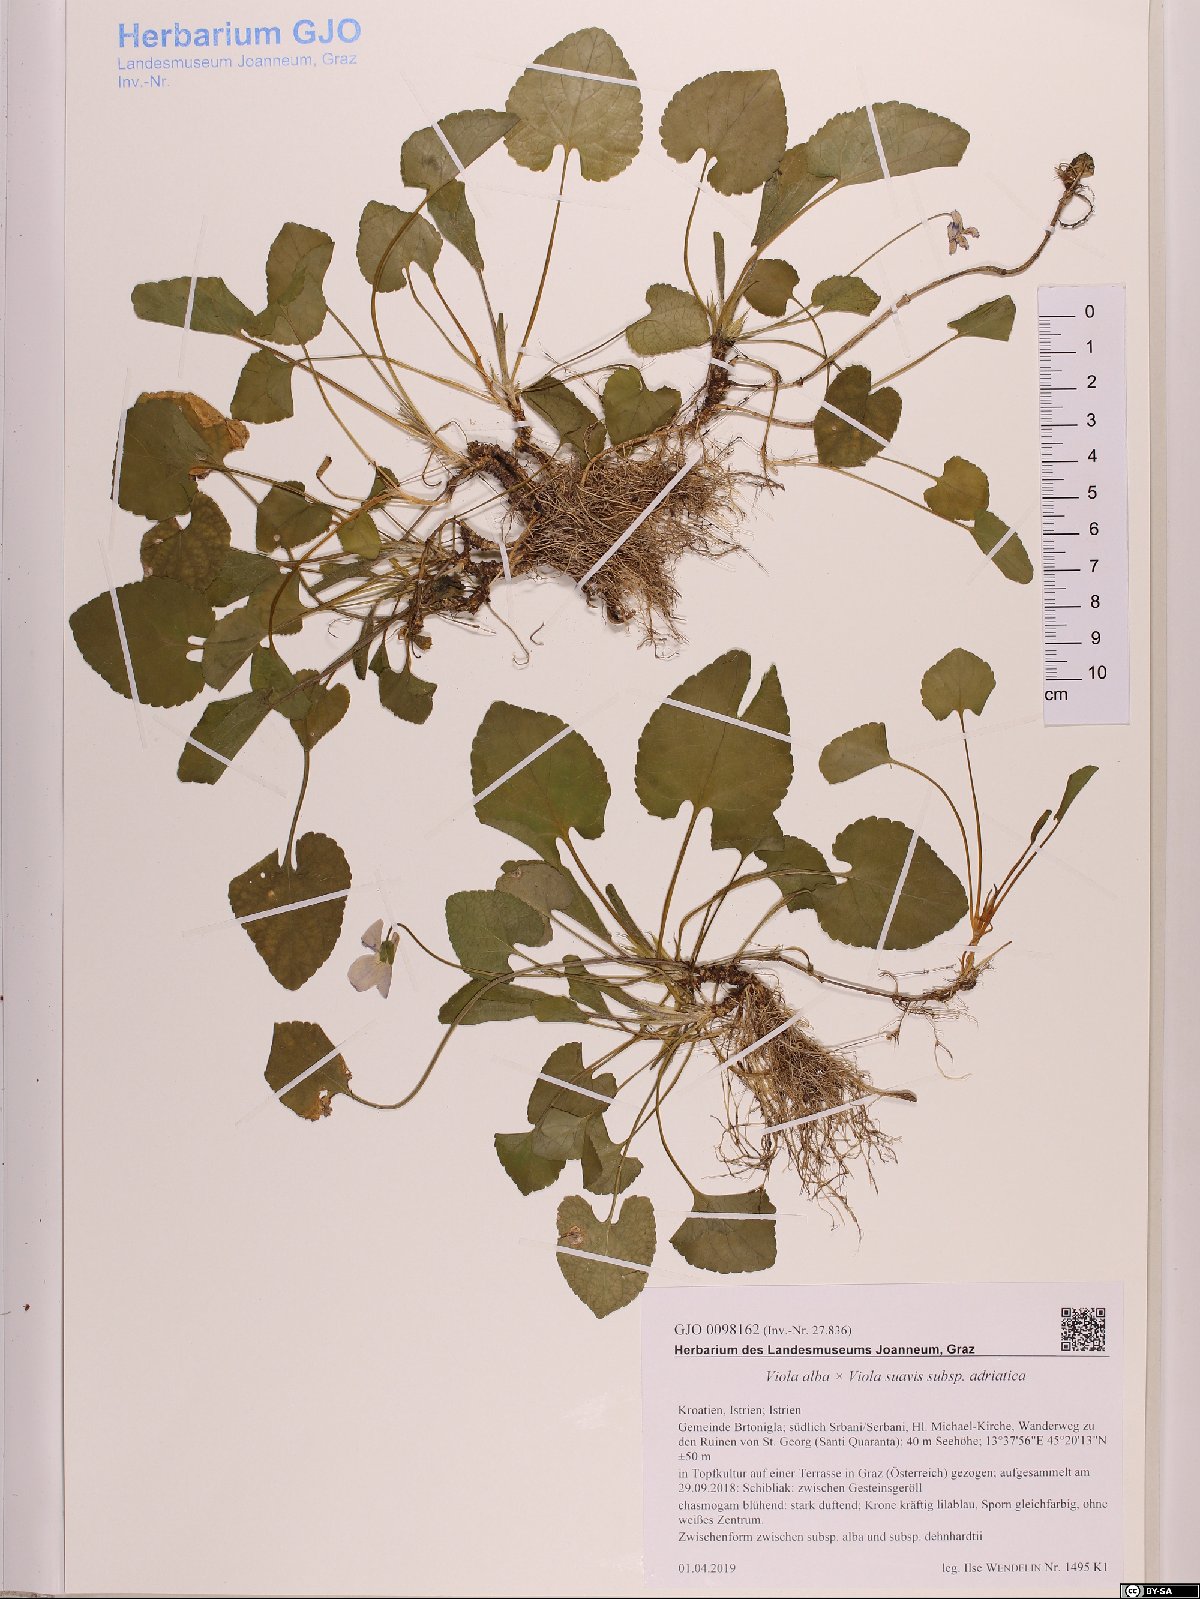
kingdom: Plantae
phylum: Tracheophyta
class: Magnoliopsida
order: Malpighiales
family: Violaceae
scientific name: Violaceae
